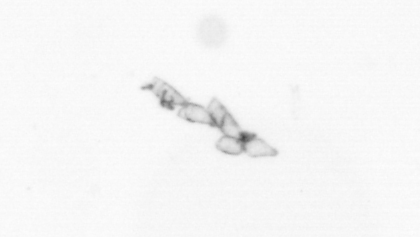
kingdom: Chromista
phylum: Ochrophyta
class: Bacillariophyceae
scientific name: Bacillariophyceae
